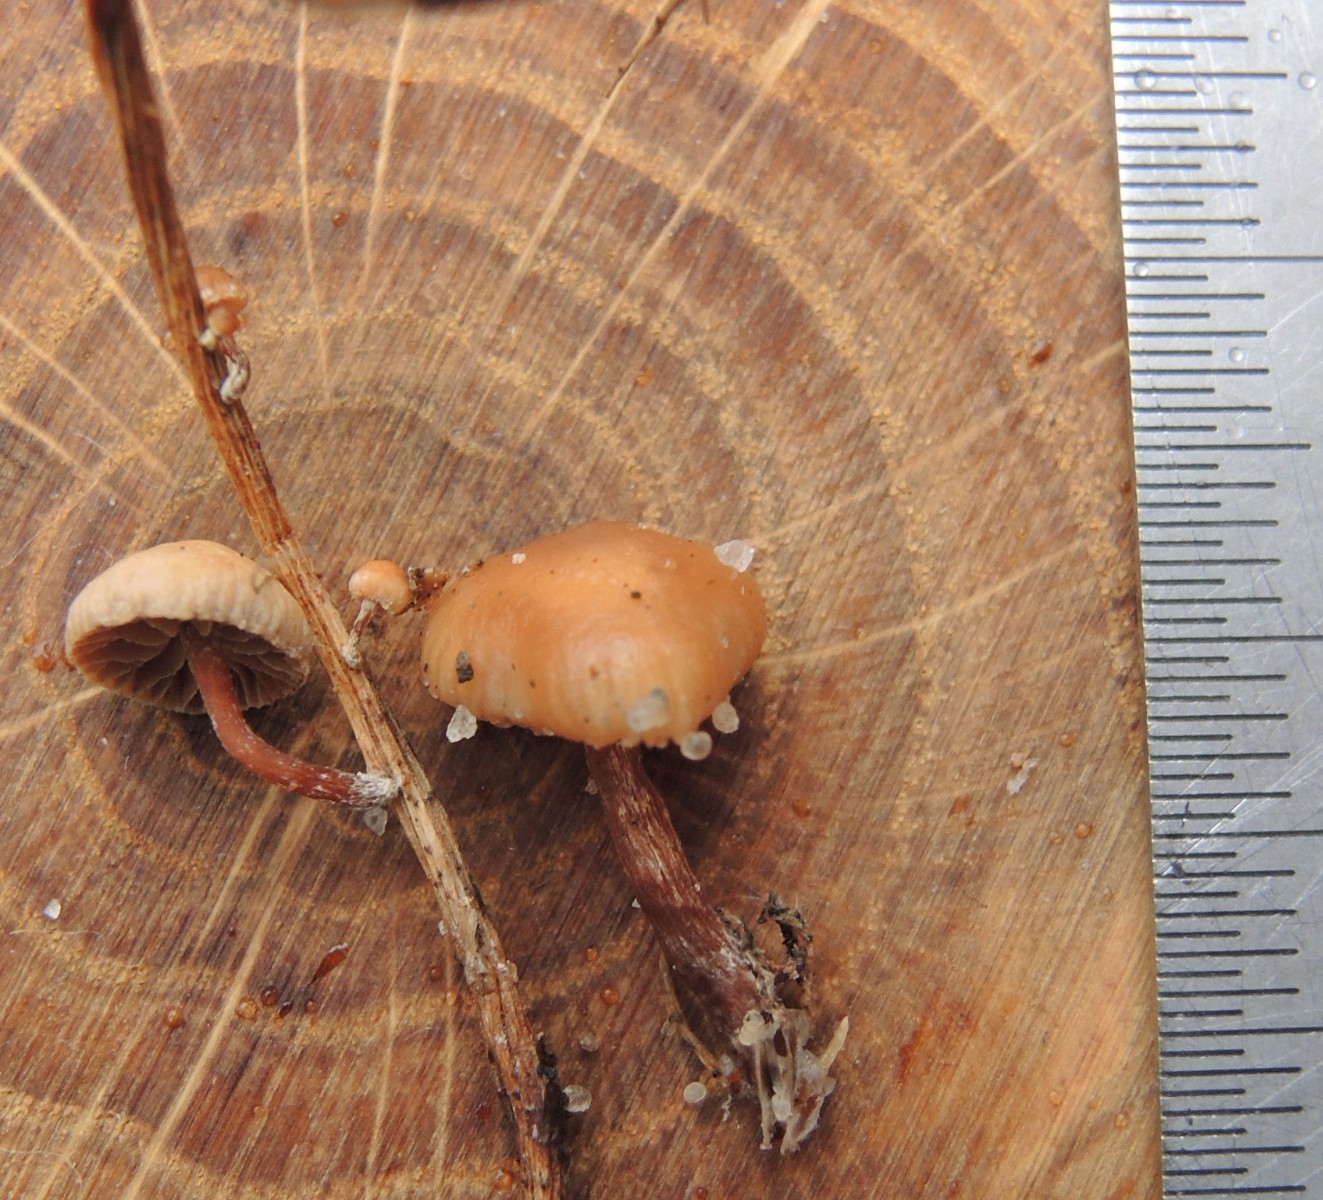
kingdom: Fungi
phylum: Basidiomycota
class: Agaricomycetes
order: Agaricales
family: Strophariaceae
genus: Deconica
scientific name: Deconica inquilina
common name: græs-stråhat
